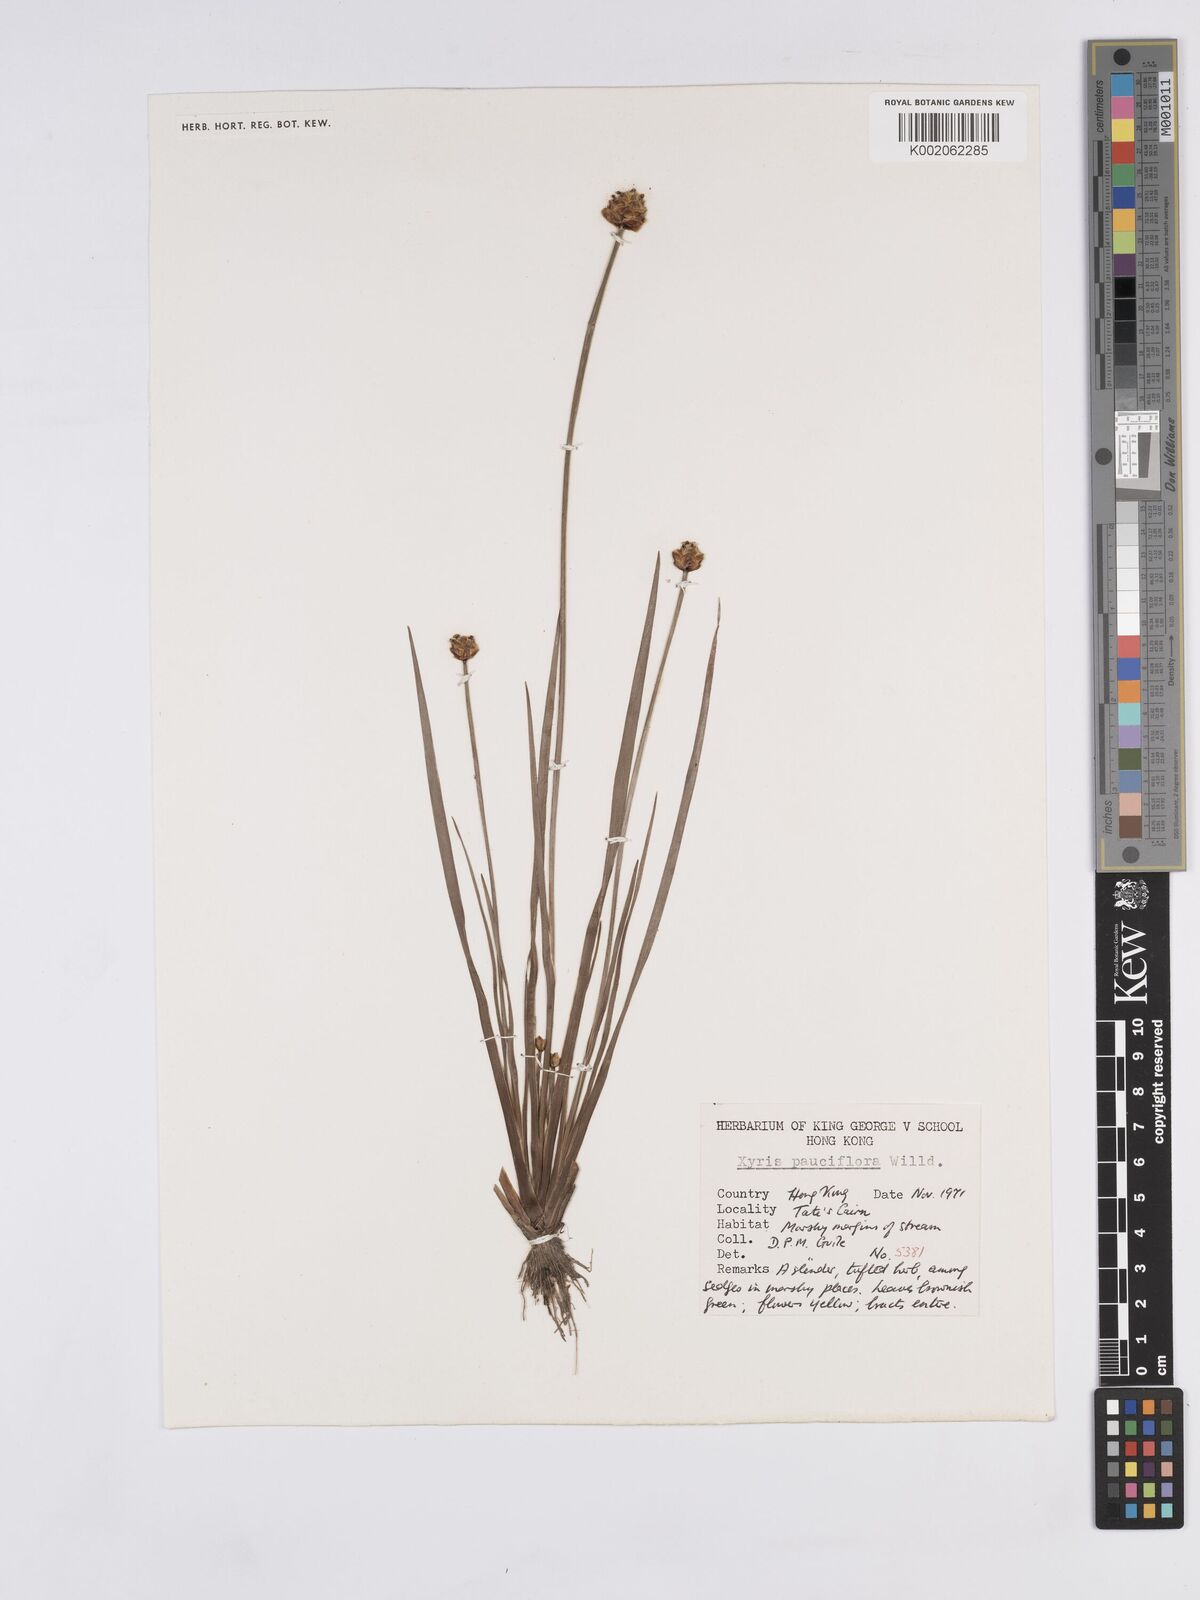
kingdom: Plantae
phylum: Tracheophyta
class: Liliopsida
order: Poales
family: Xyridaceae
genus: Xyris
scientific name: Xyris pauciflora
